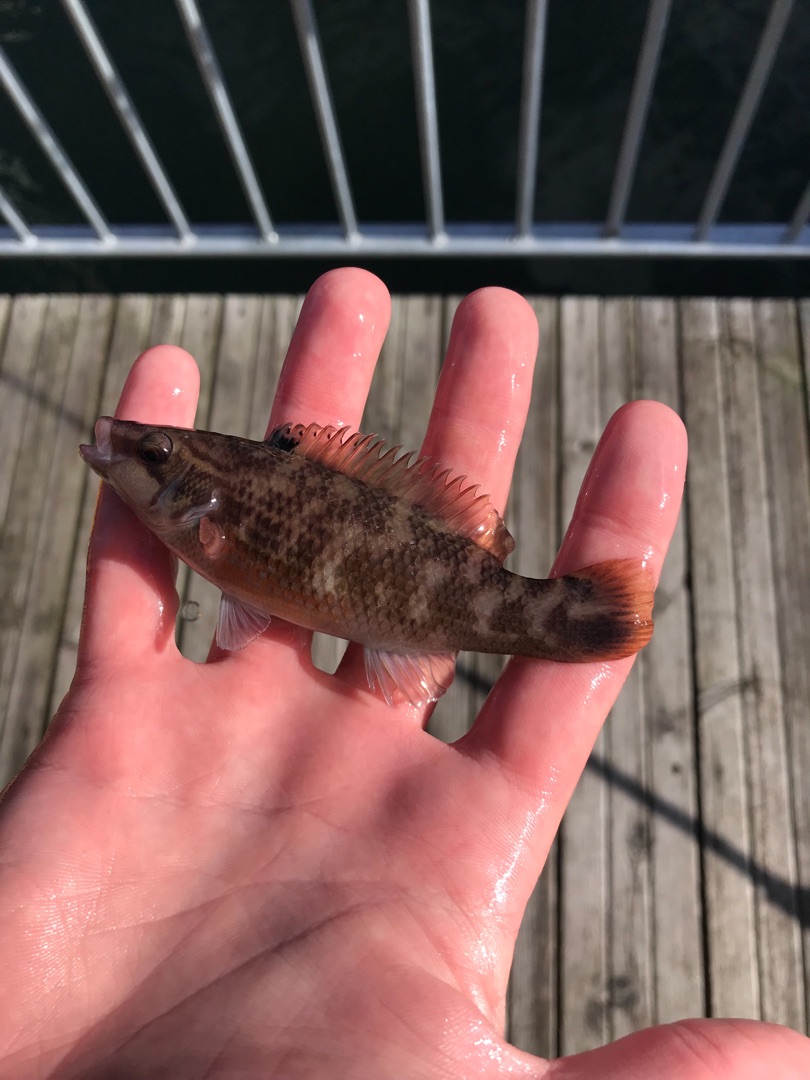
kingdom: Animalia
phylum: Chordata
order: Perciformes
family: Labridae
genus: Ctenolabrus
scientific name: Ctenolabrus rupestris
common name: Havkarusse
